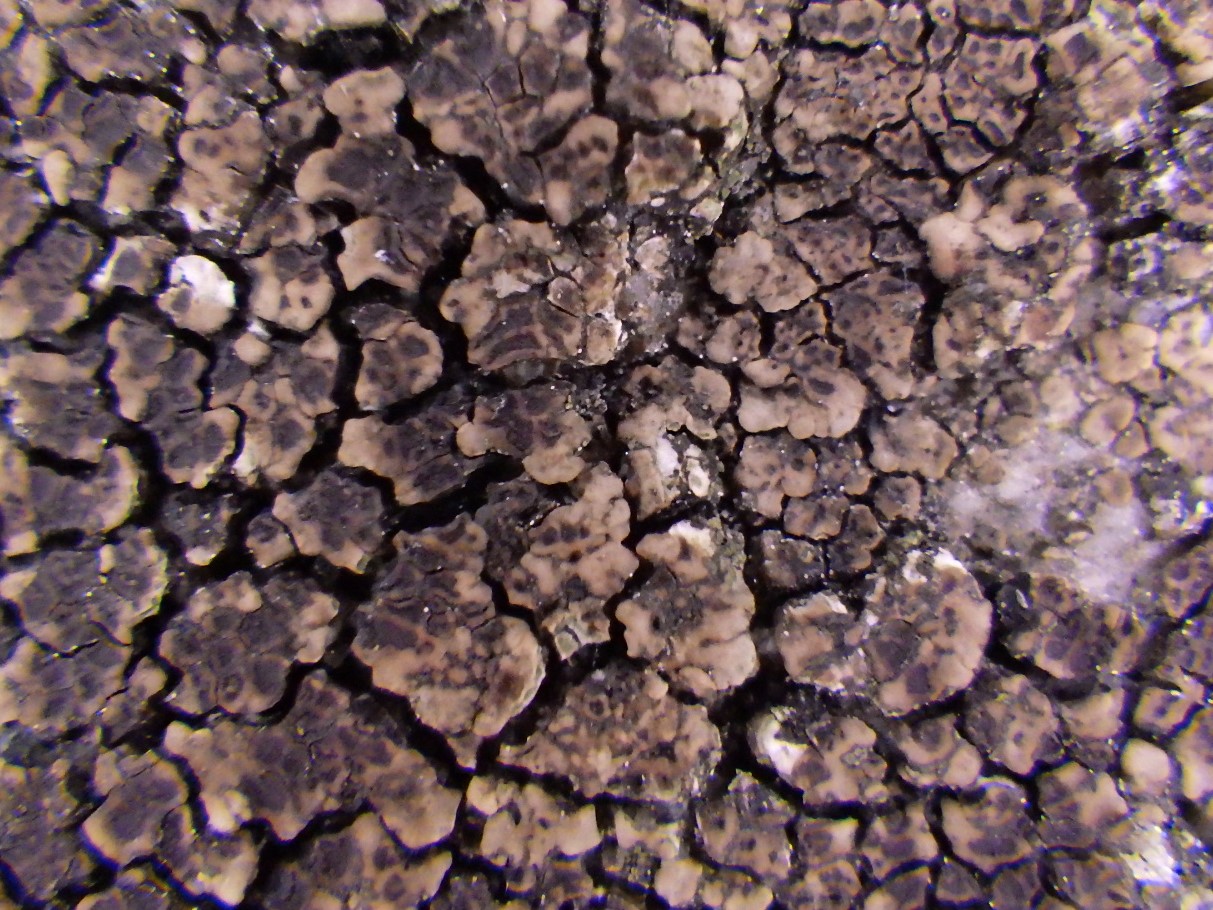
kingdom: Fungi
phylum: Ascomycota
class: Lecanoromycetes
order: Acarosporales
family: Acarosporaceae
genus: Acarospora
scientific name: Acarospora fuscata
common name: brun småsporelav
